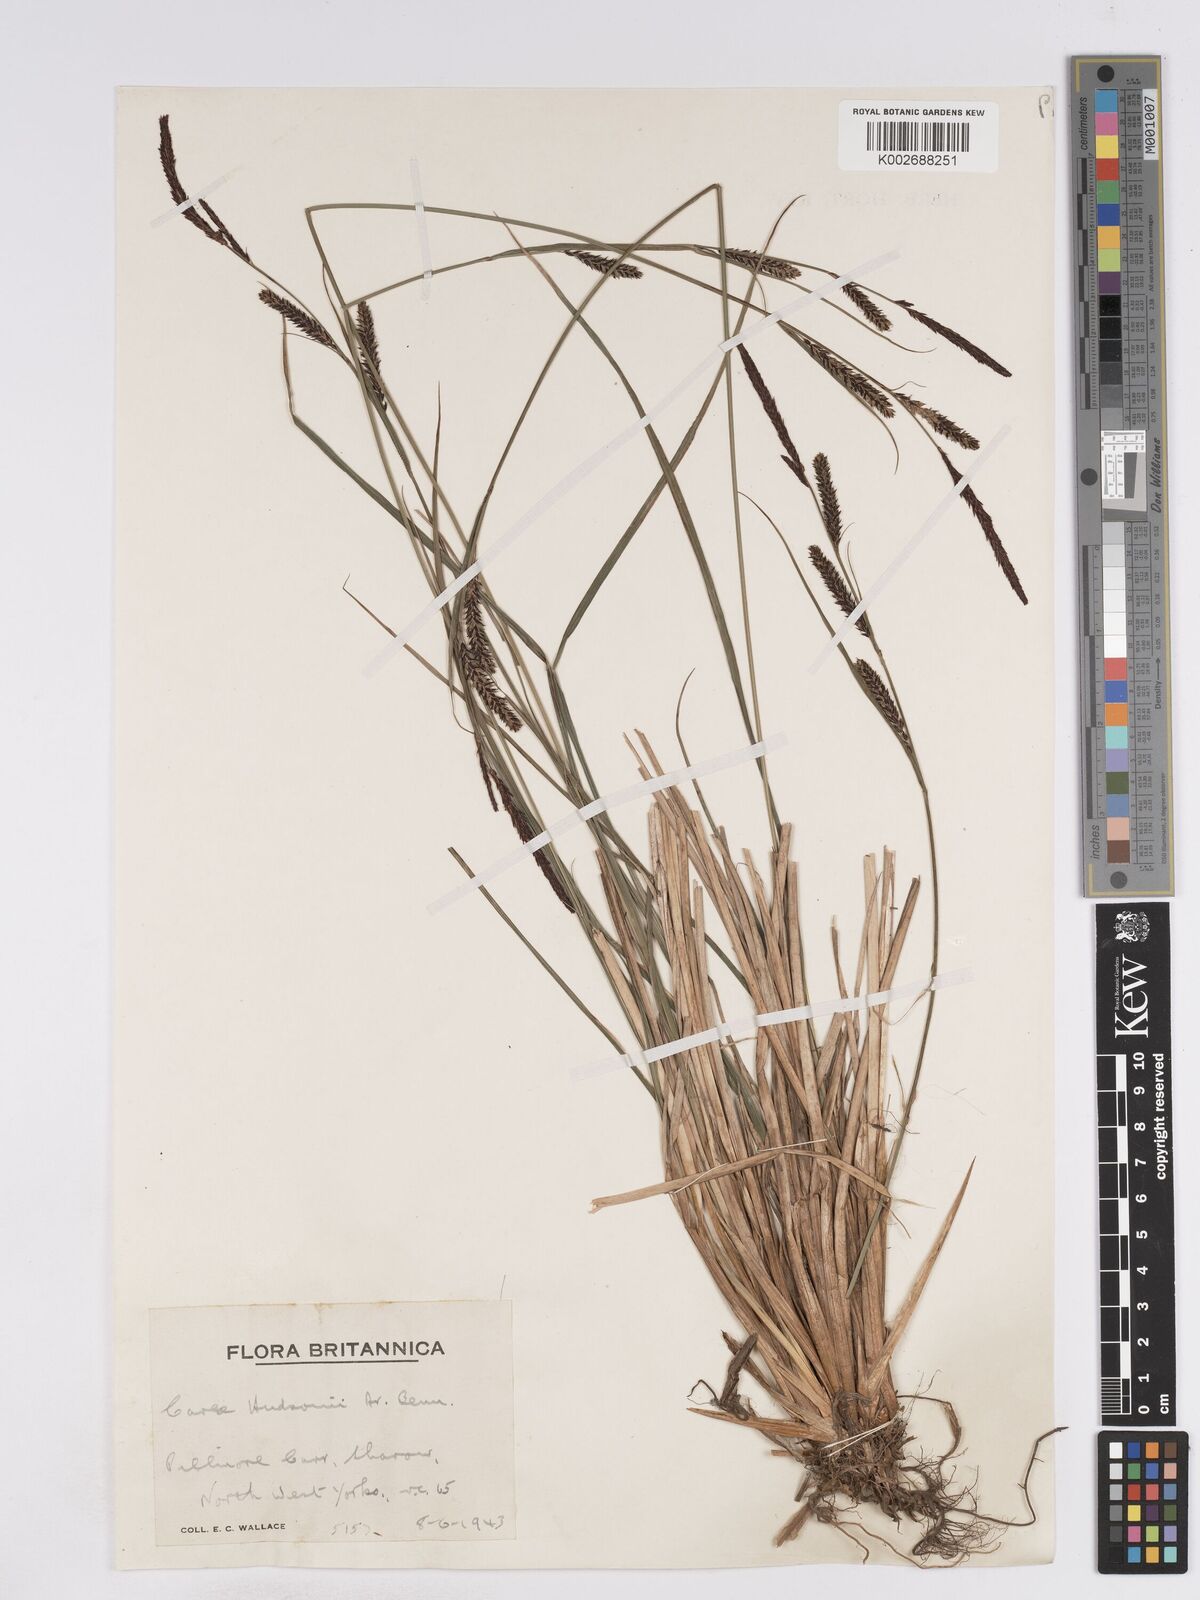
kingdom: Plantae
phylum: Tracheophyta
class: Liliopsida
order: Poales
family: Cyperaceae
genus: Carex
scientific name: Carex elata
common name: Tufted sedge
